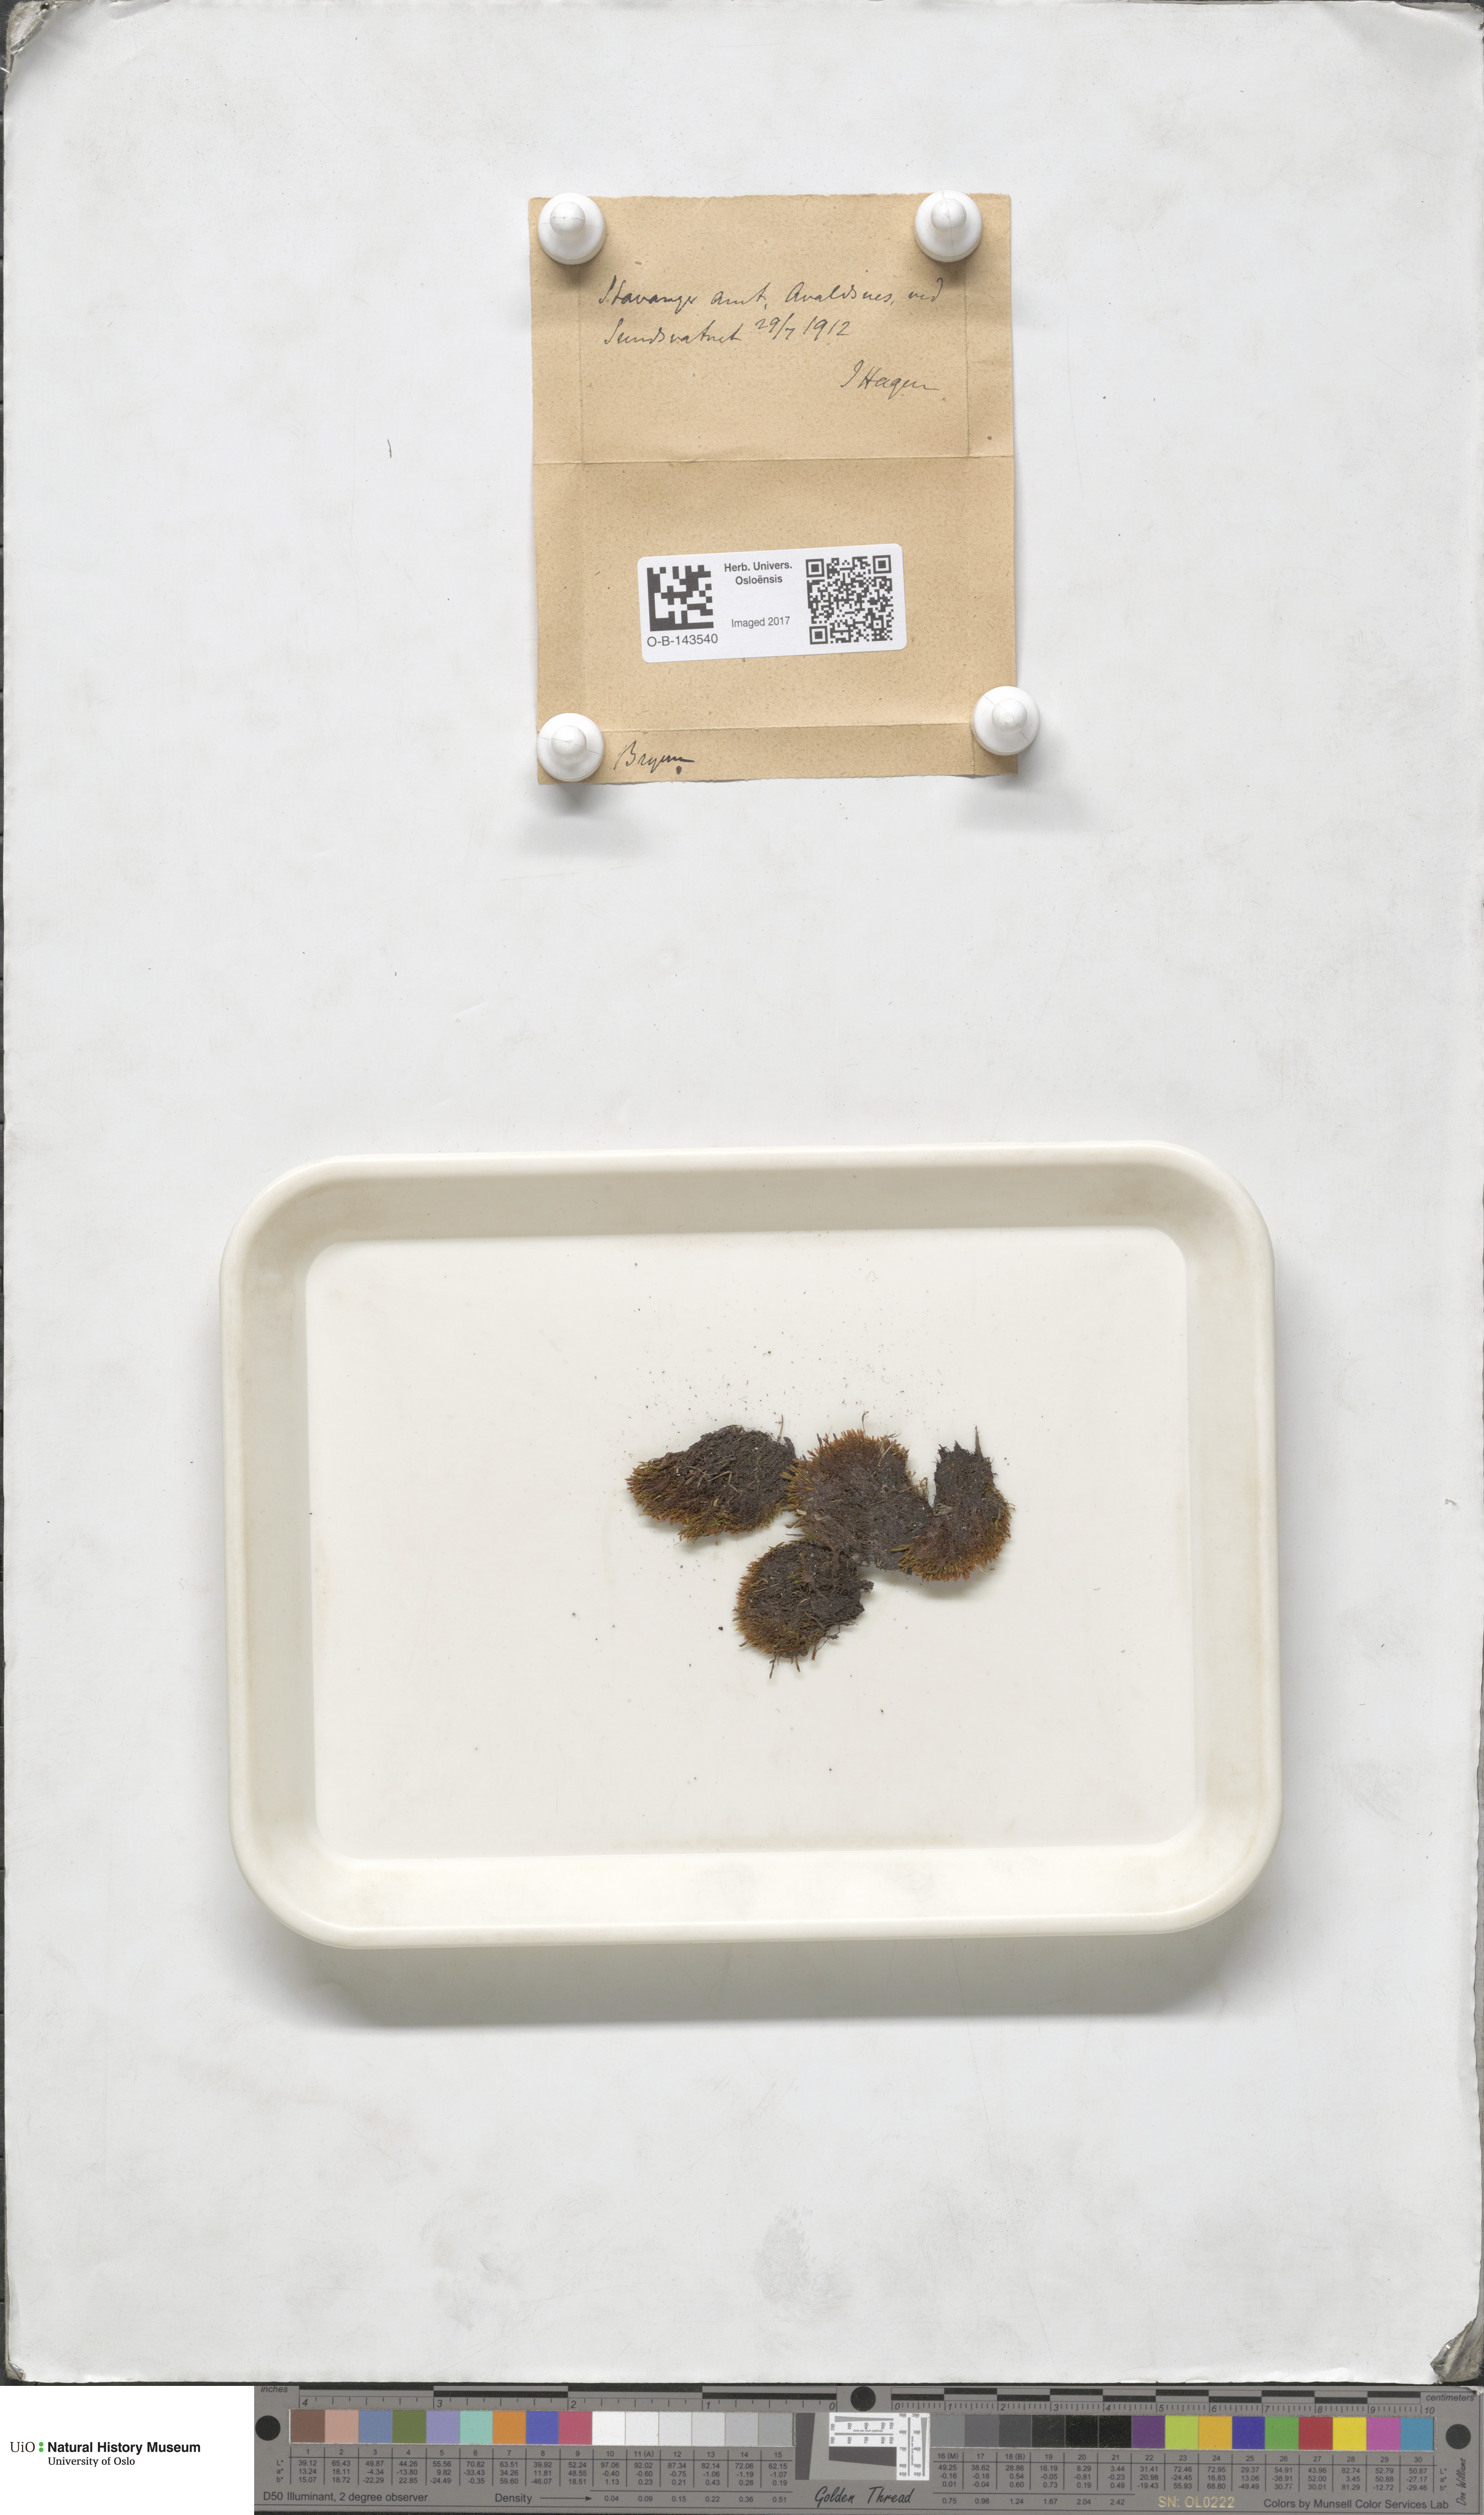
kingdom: Plantae
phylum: Bryophyta
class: Bryopsida
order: Bryales
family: Bryaceae
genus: Bryum
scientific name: Bryum
